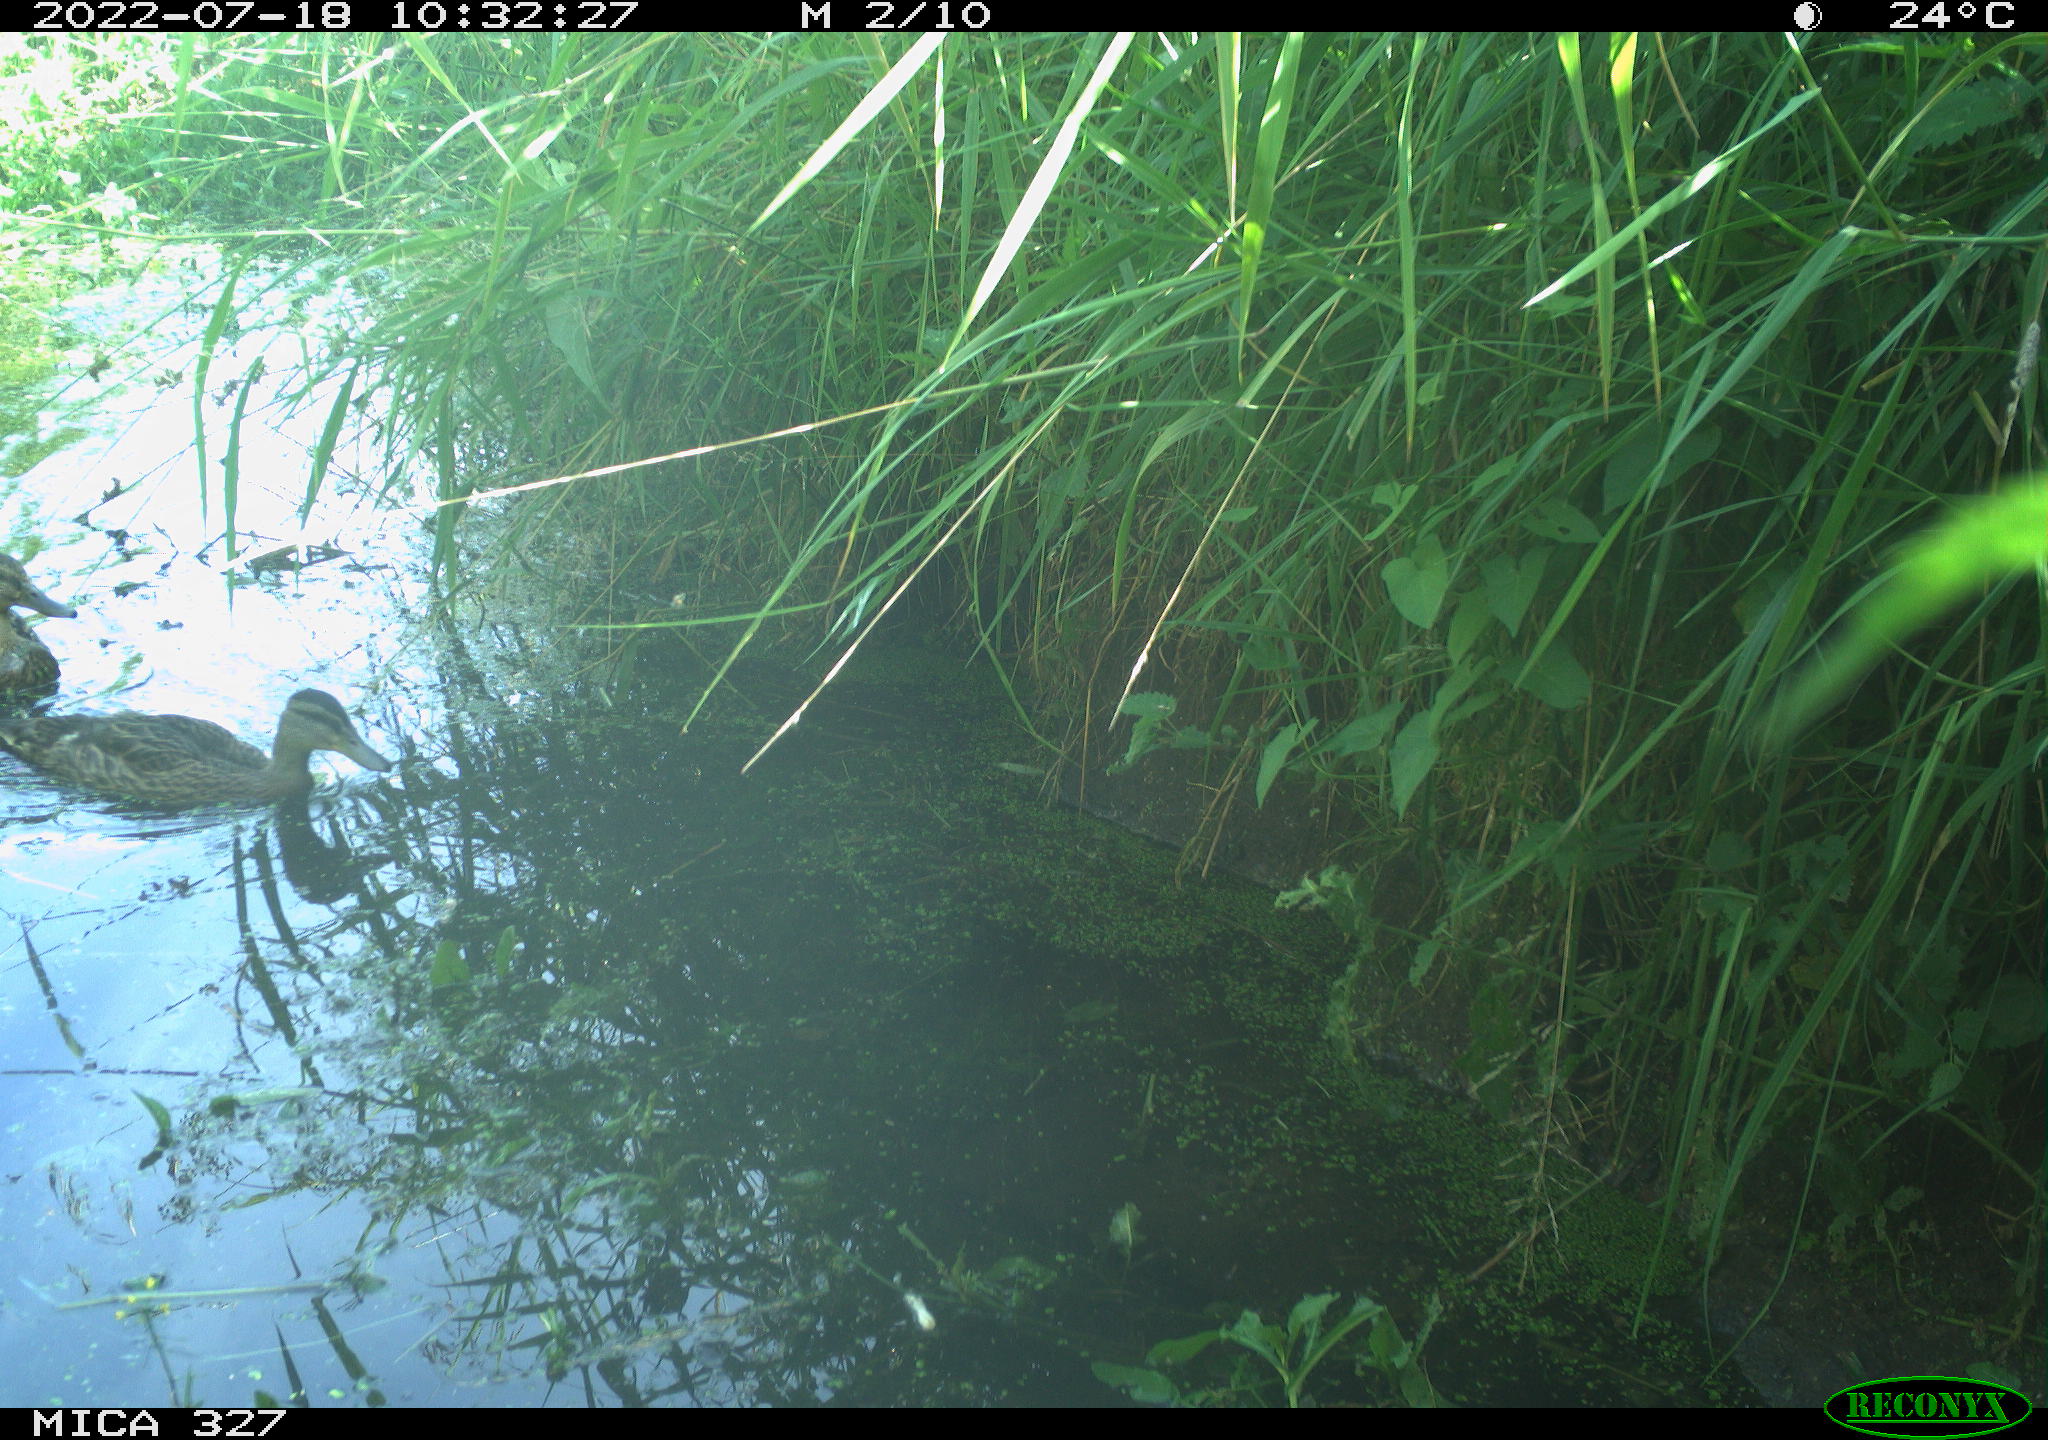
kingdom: Animalia
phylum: Chordata
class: Aves
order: Anseriformes
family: Anatidae
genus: Anas
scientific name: Anas
